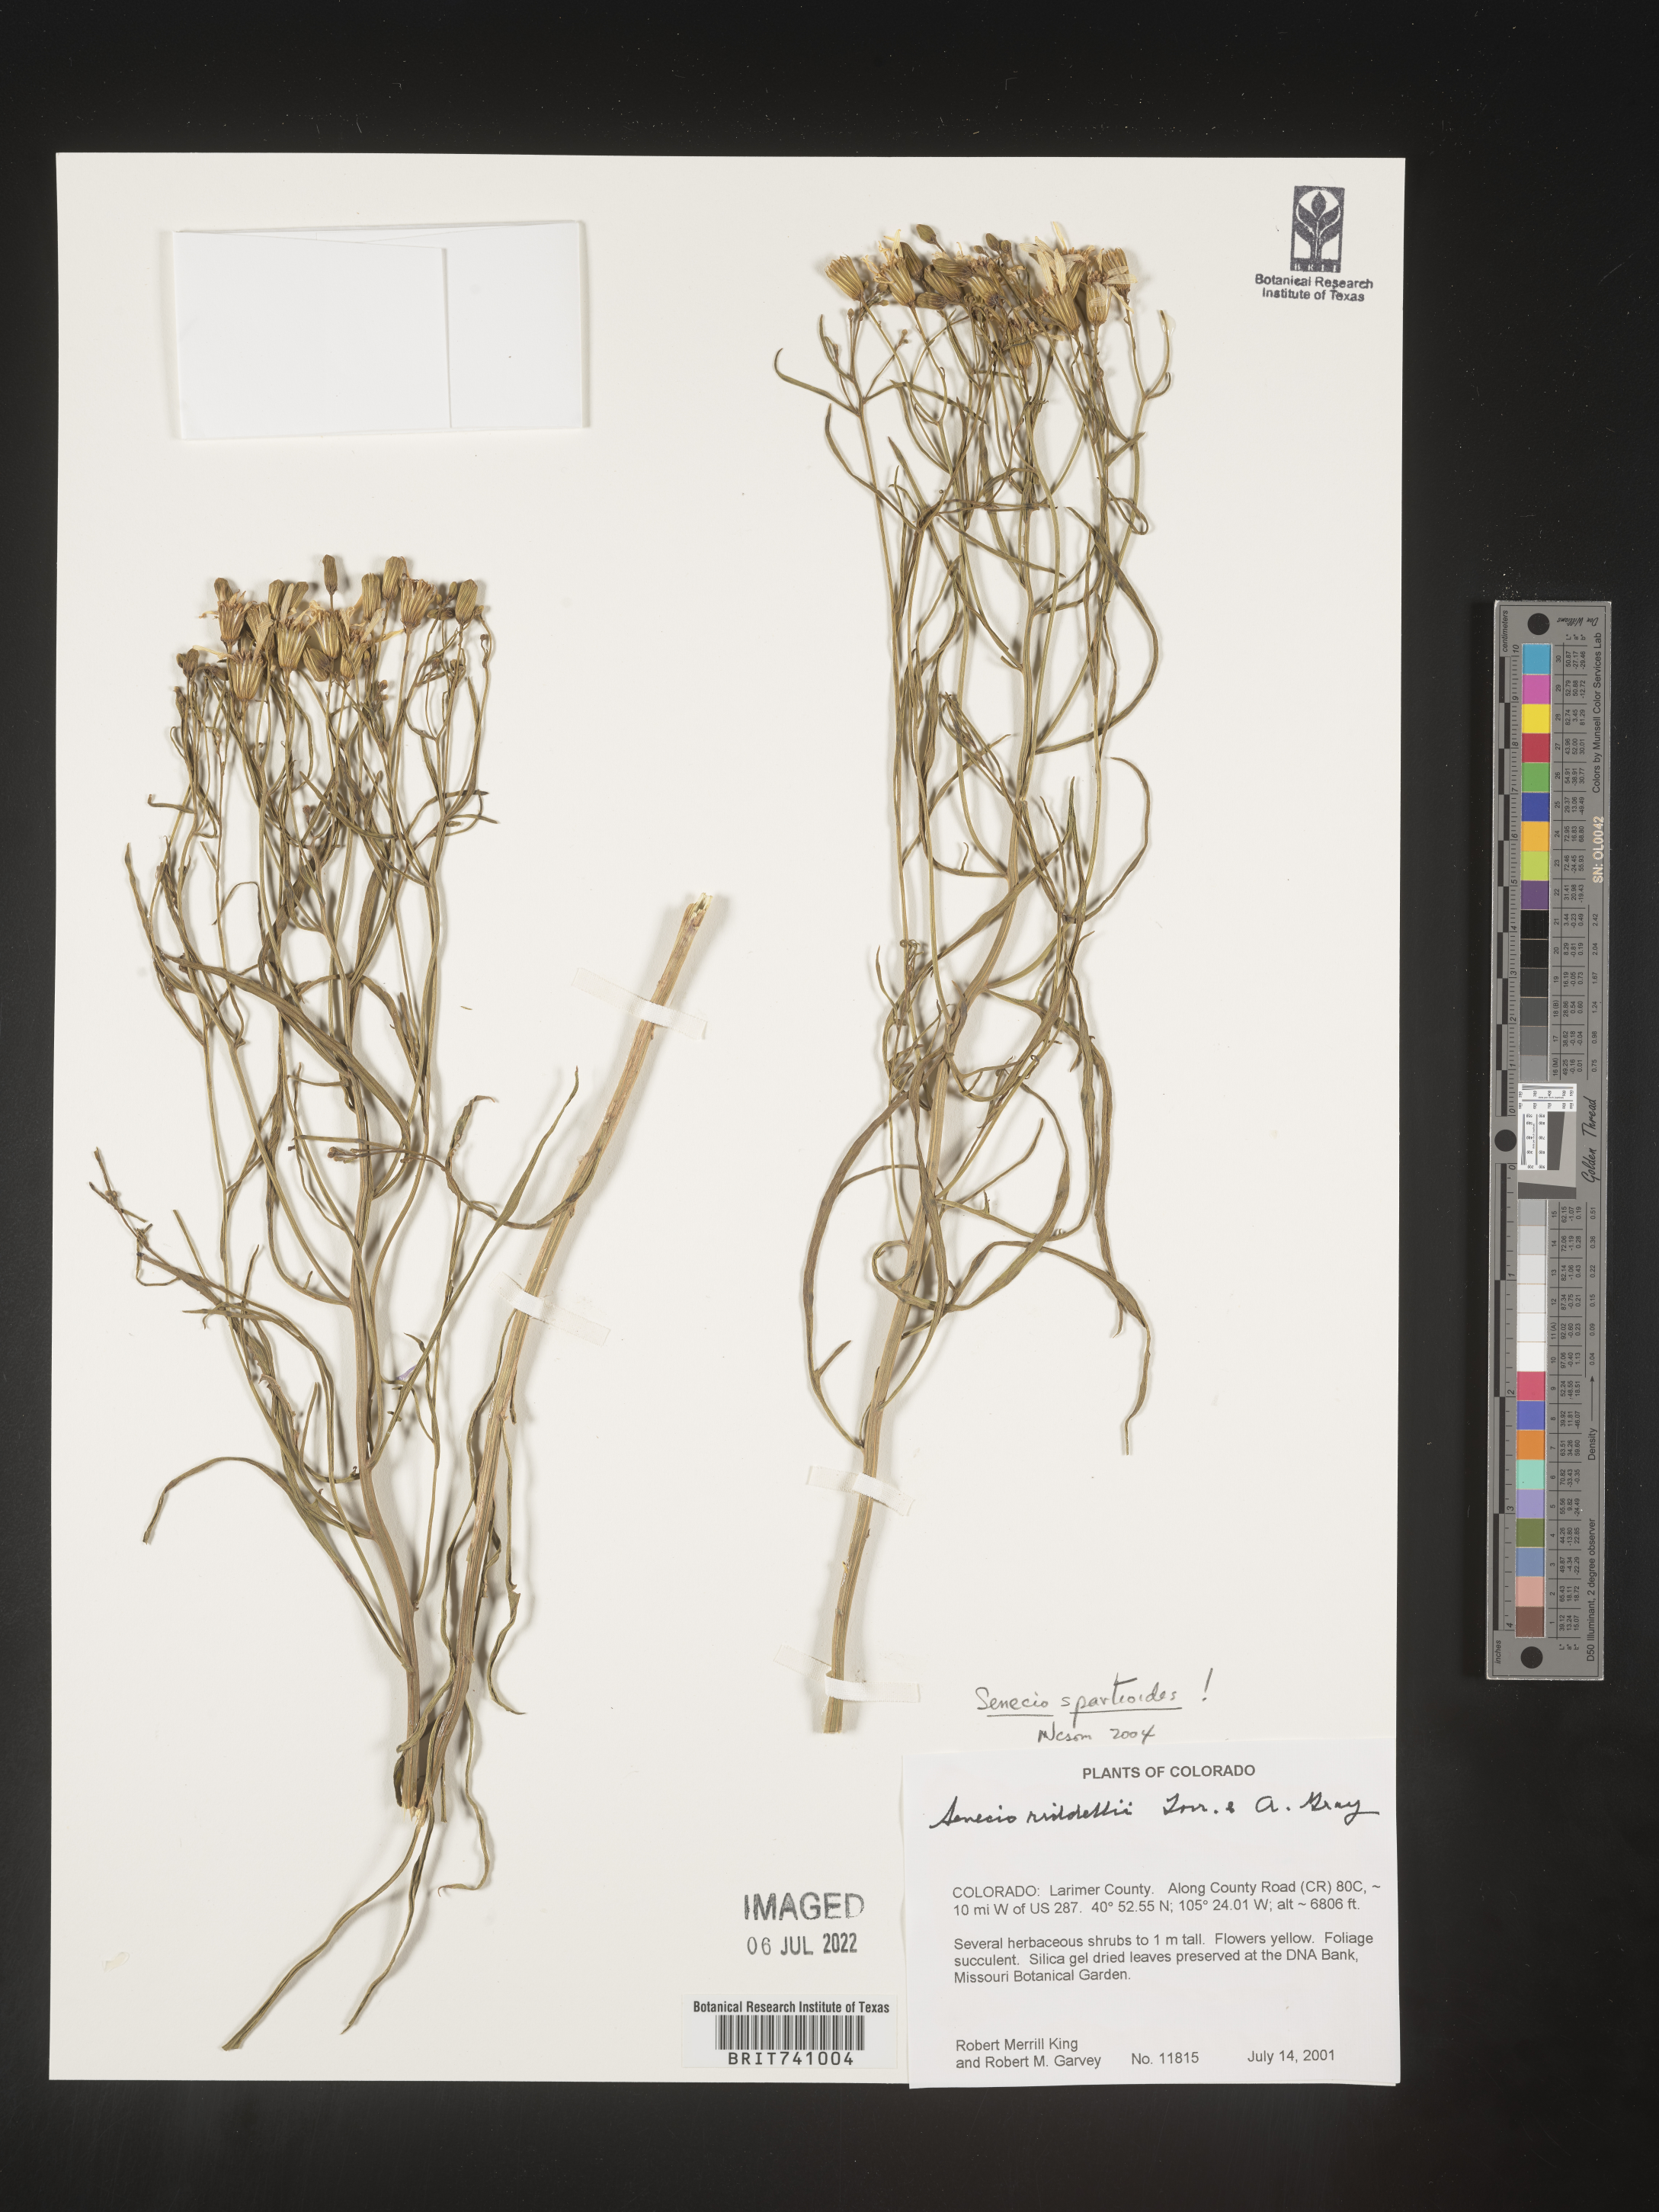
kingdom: Plantae
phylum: Tracheophyta
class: Magnoliopsida
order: Asterales
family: Asteraceae
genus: Senecio
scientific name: Senecio spartioides
